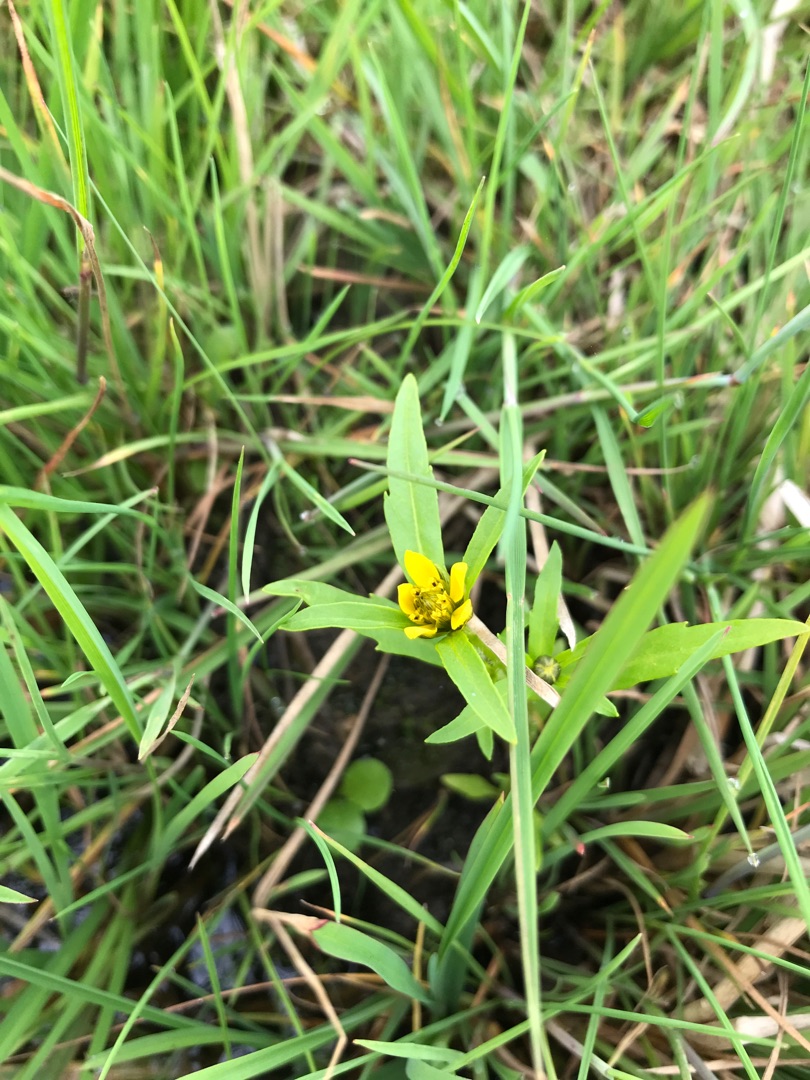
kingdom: Plantae
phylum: Tracheophyta
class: Magnoliopsida
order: Asterales
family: Asteraceae
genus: Bidens
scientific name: Bidens cernua
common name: Nikkende brøndsel
